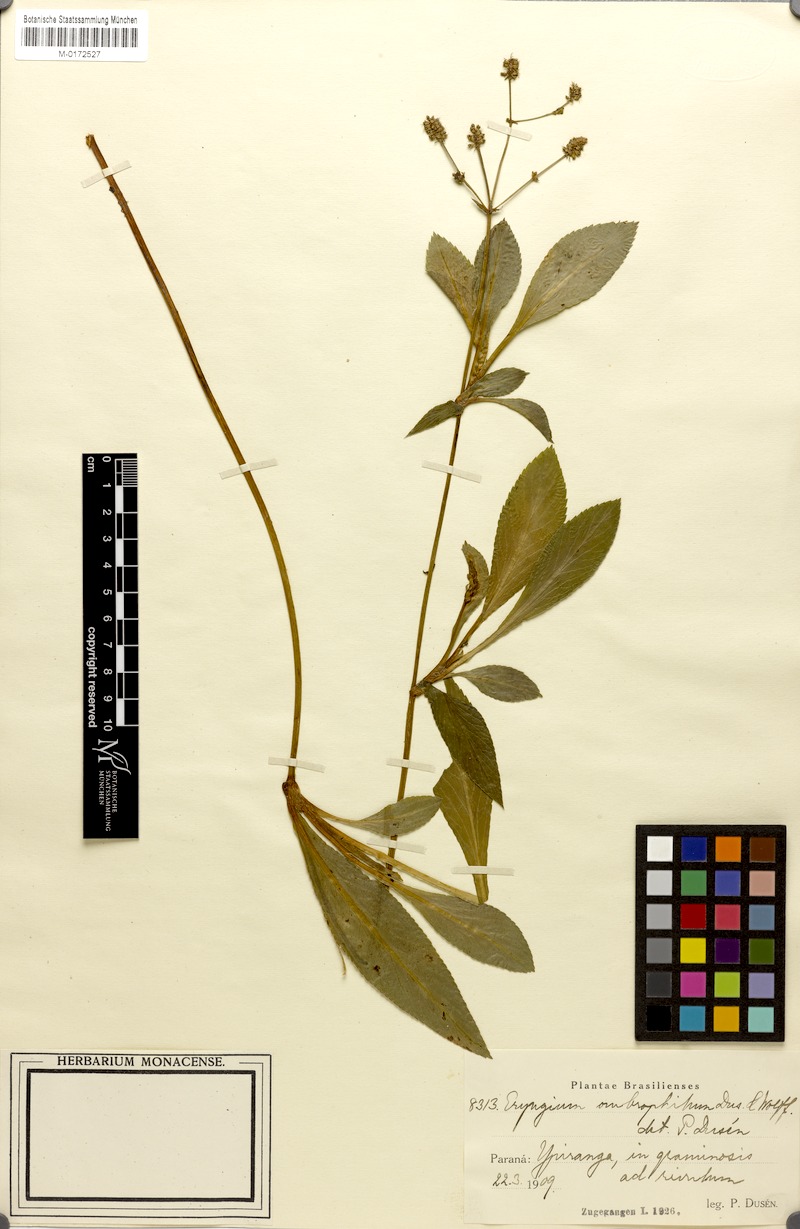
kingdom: Plantae
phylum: Tracheophyta
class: Magnoliopsida
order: Apiales
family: Apiaceae
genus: Eryngium
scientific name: Eryngium ombrophilum
